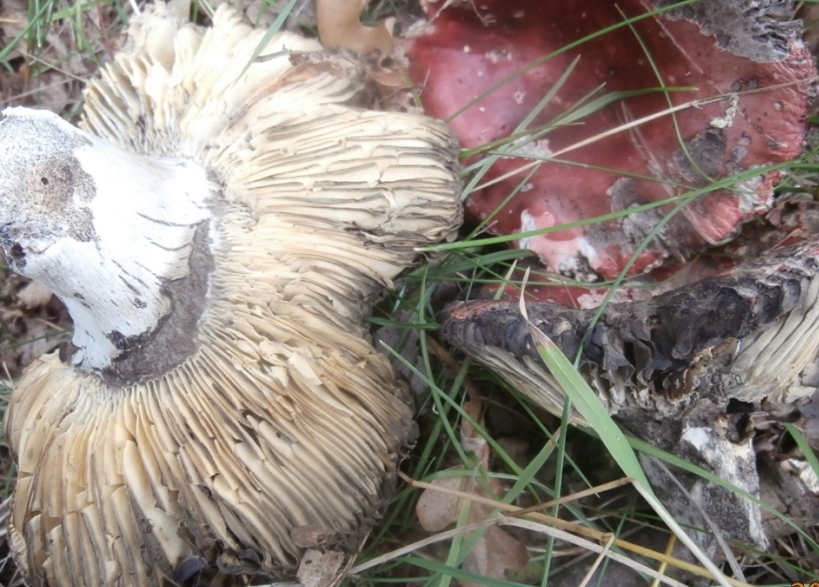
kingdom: Fungi
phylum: Basidiomycota
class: Agaricomycetes
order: Russulales
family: Russulaceae
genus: Russula
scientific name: Russula seperina
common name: rødmende skørhat
